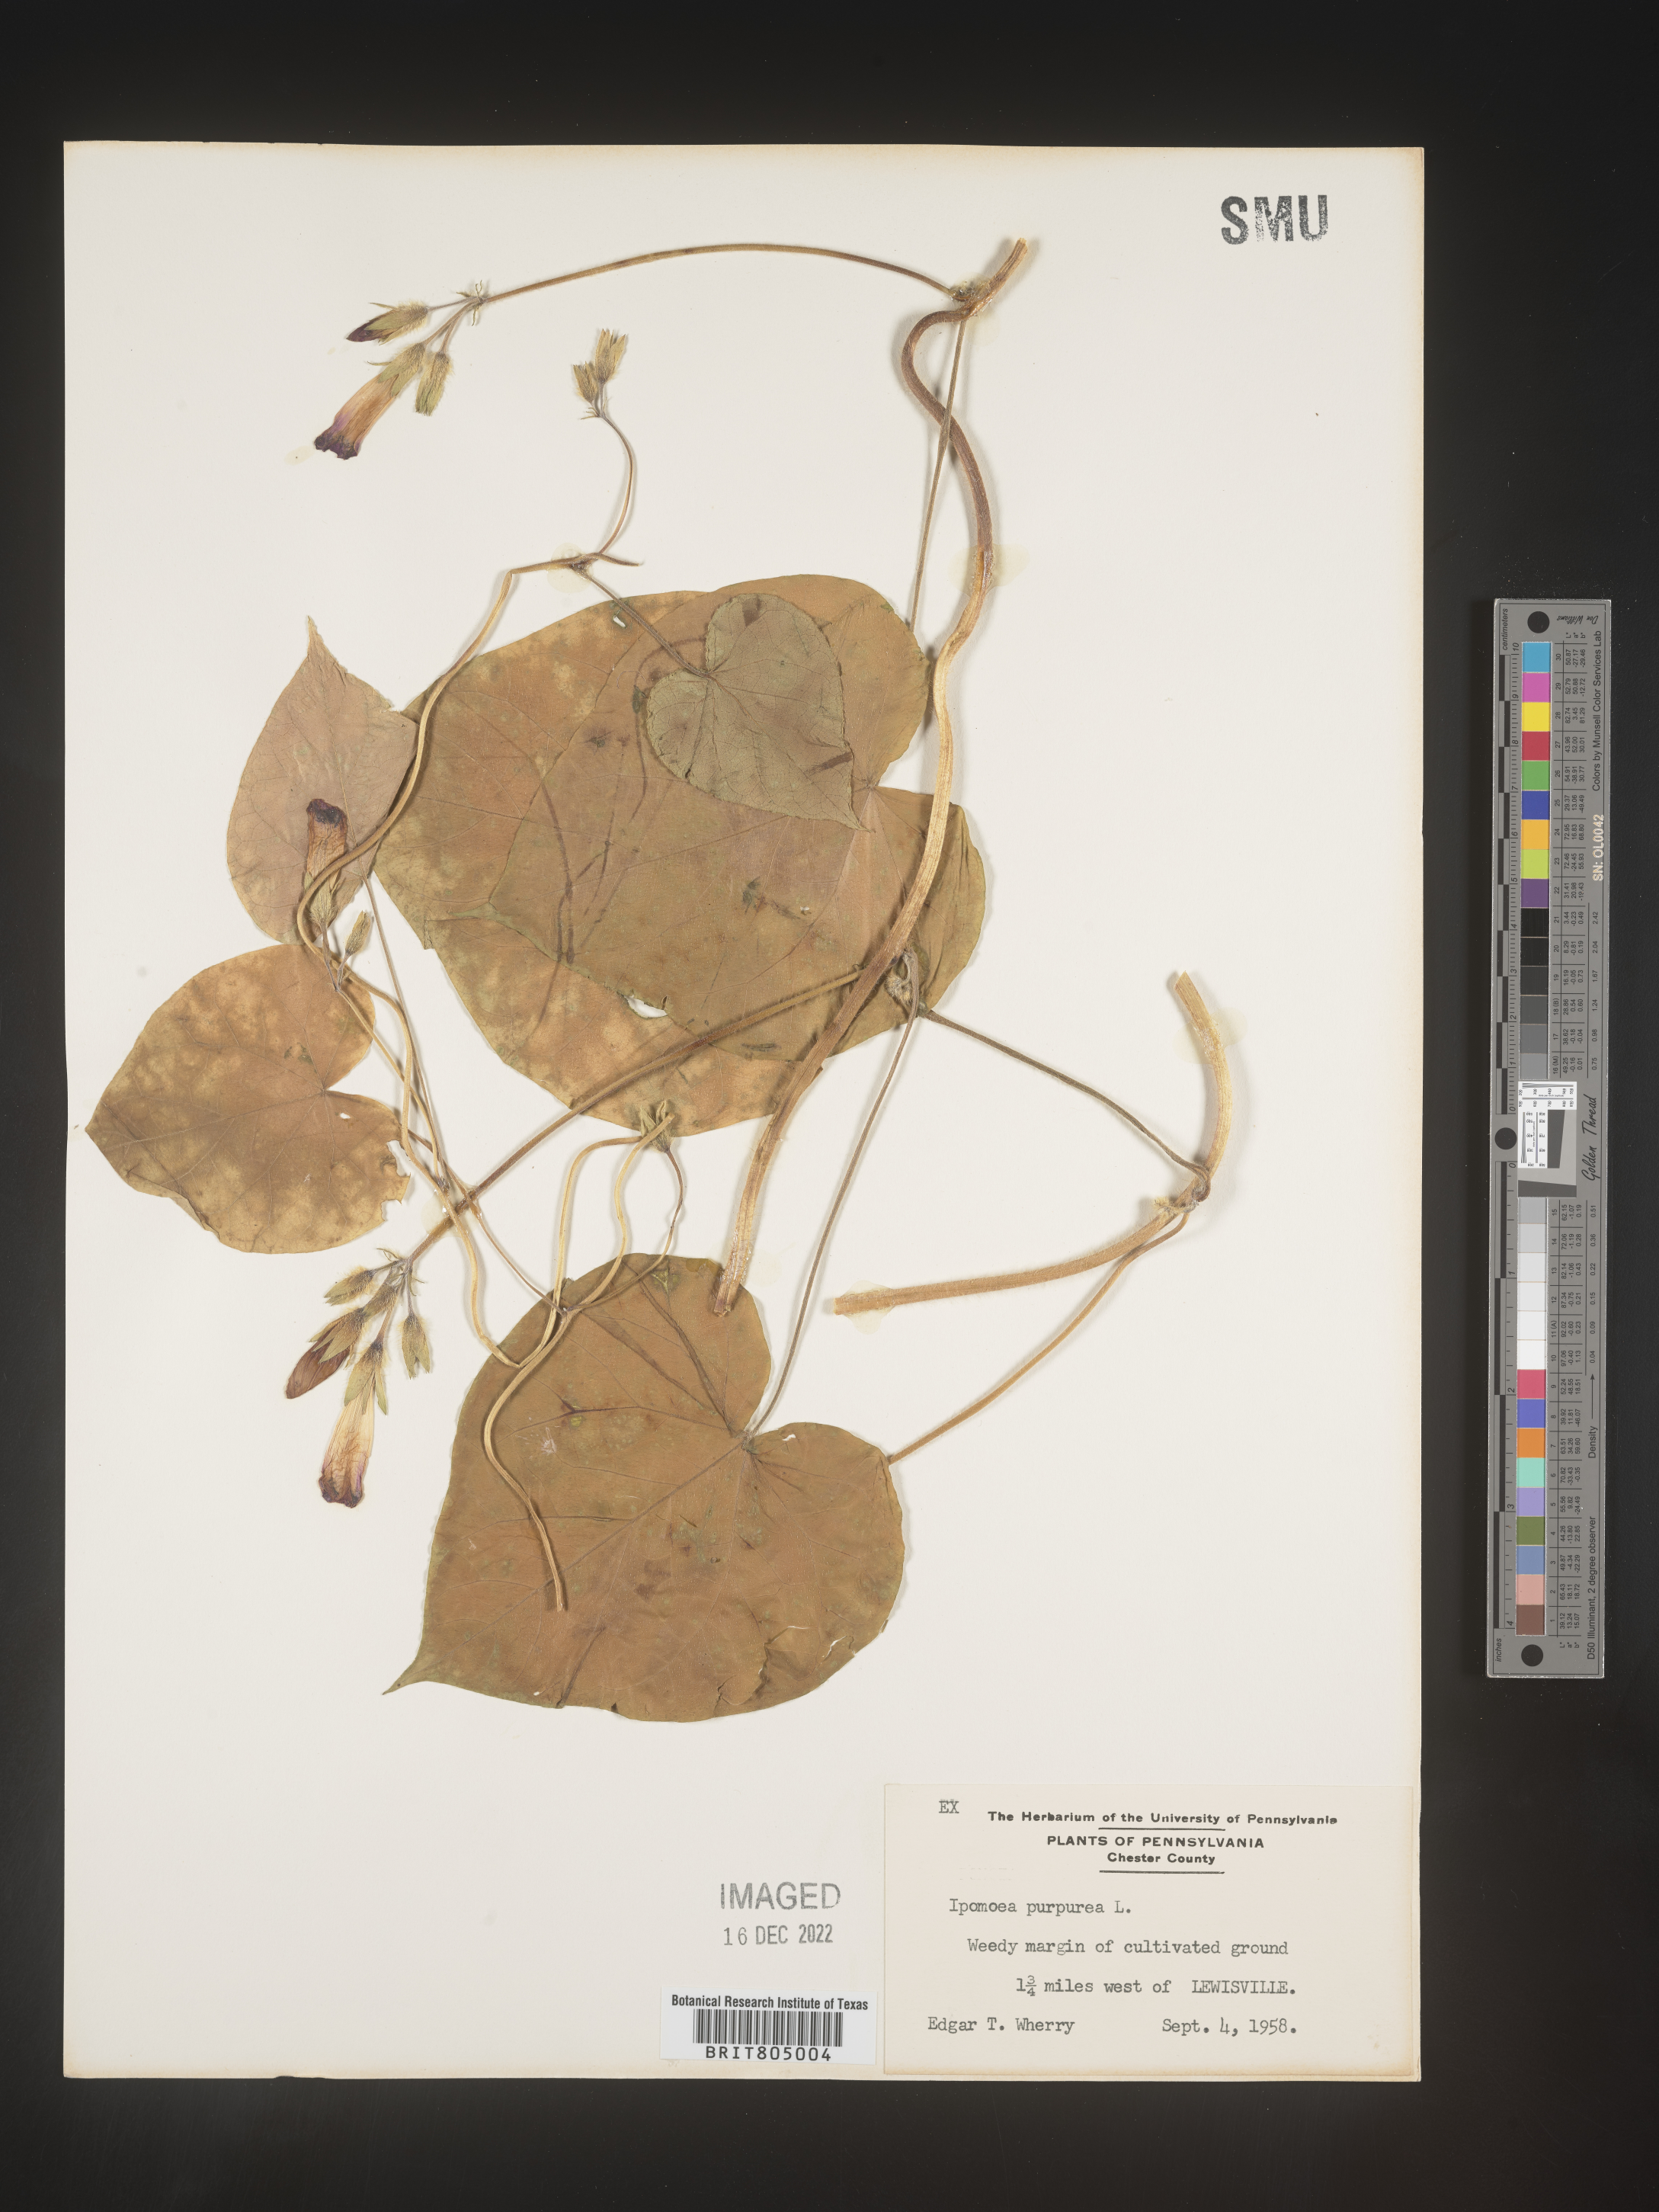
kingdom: Plantae
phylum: Tracheophyta
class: Magnoliopsida
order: Solanales
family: Convolvulaceae
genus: Ipomoea
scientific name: Ipomoea purpurea
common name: Common morning-glory
